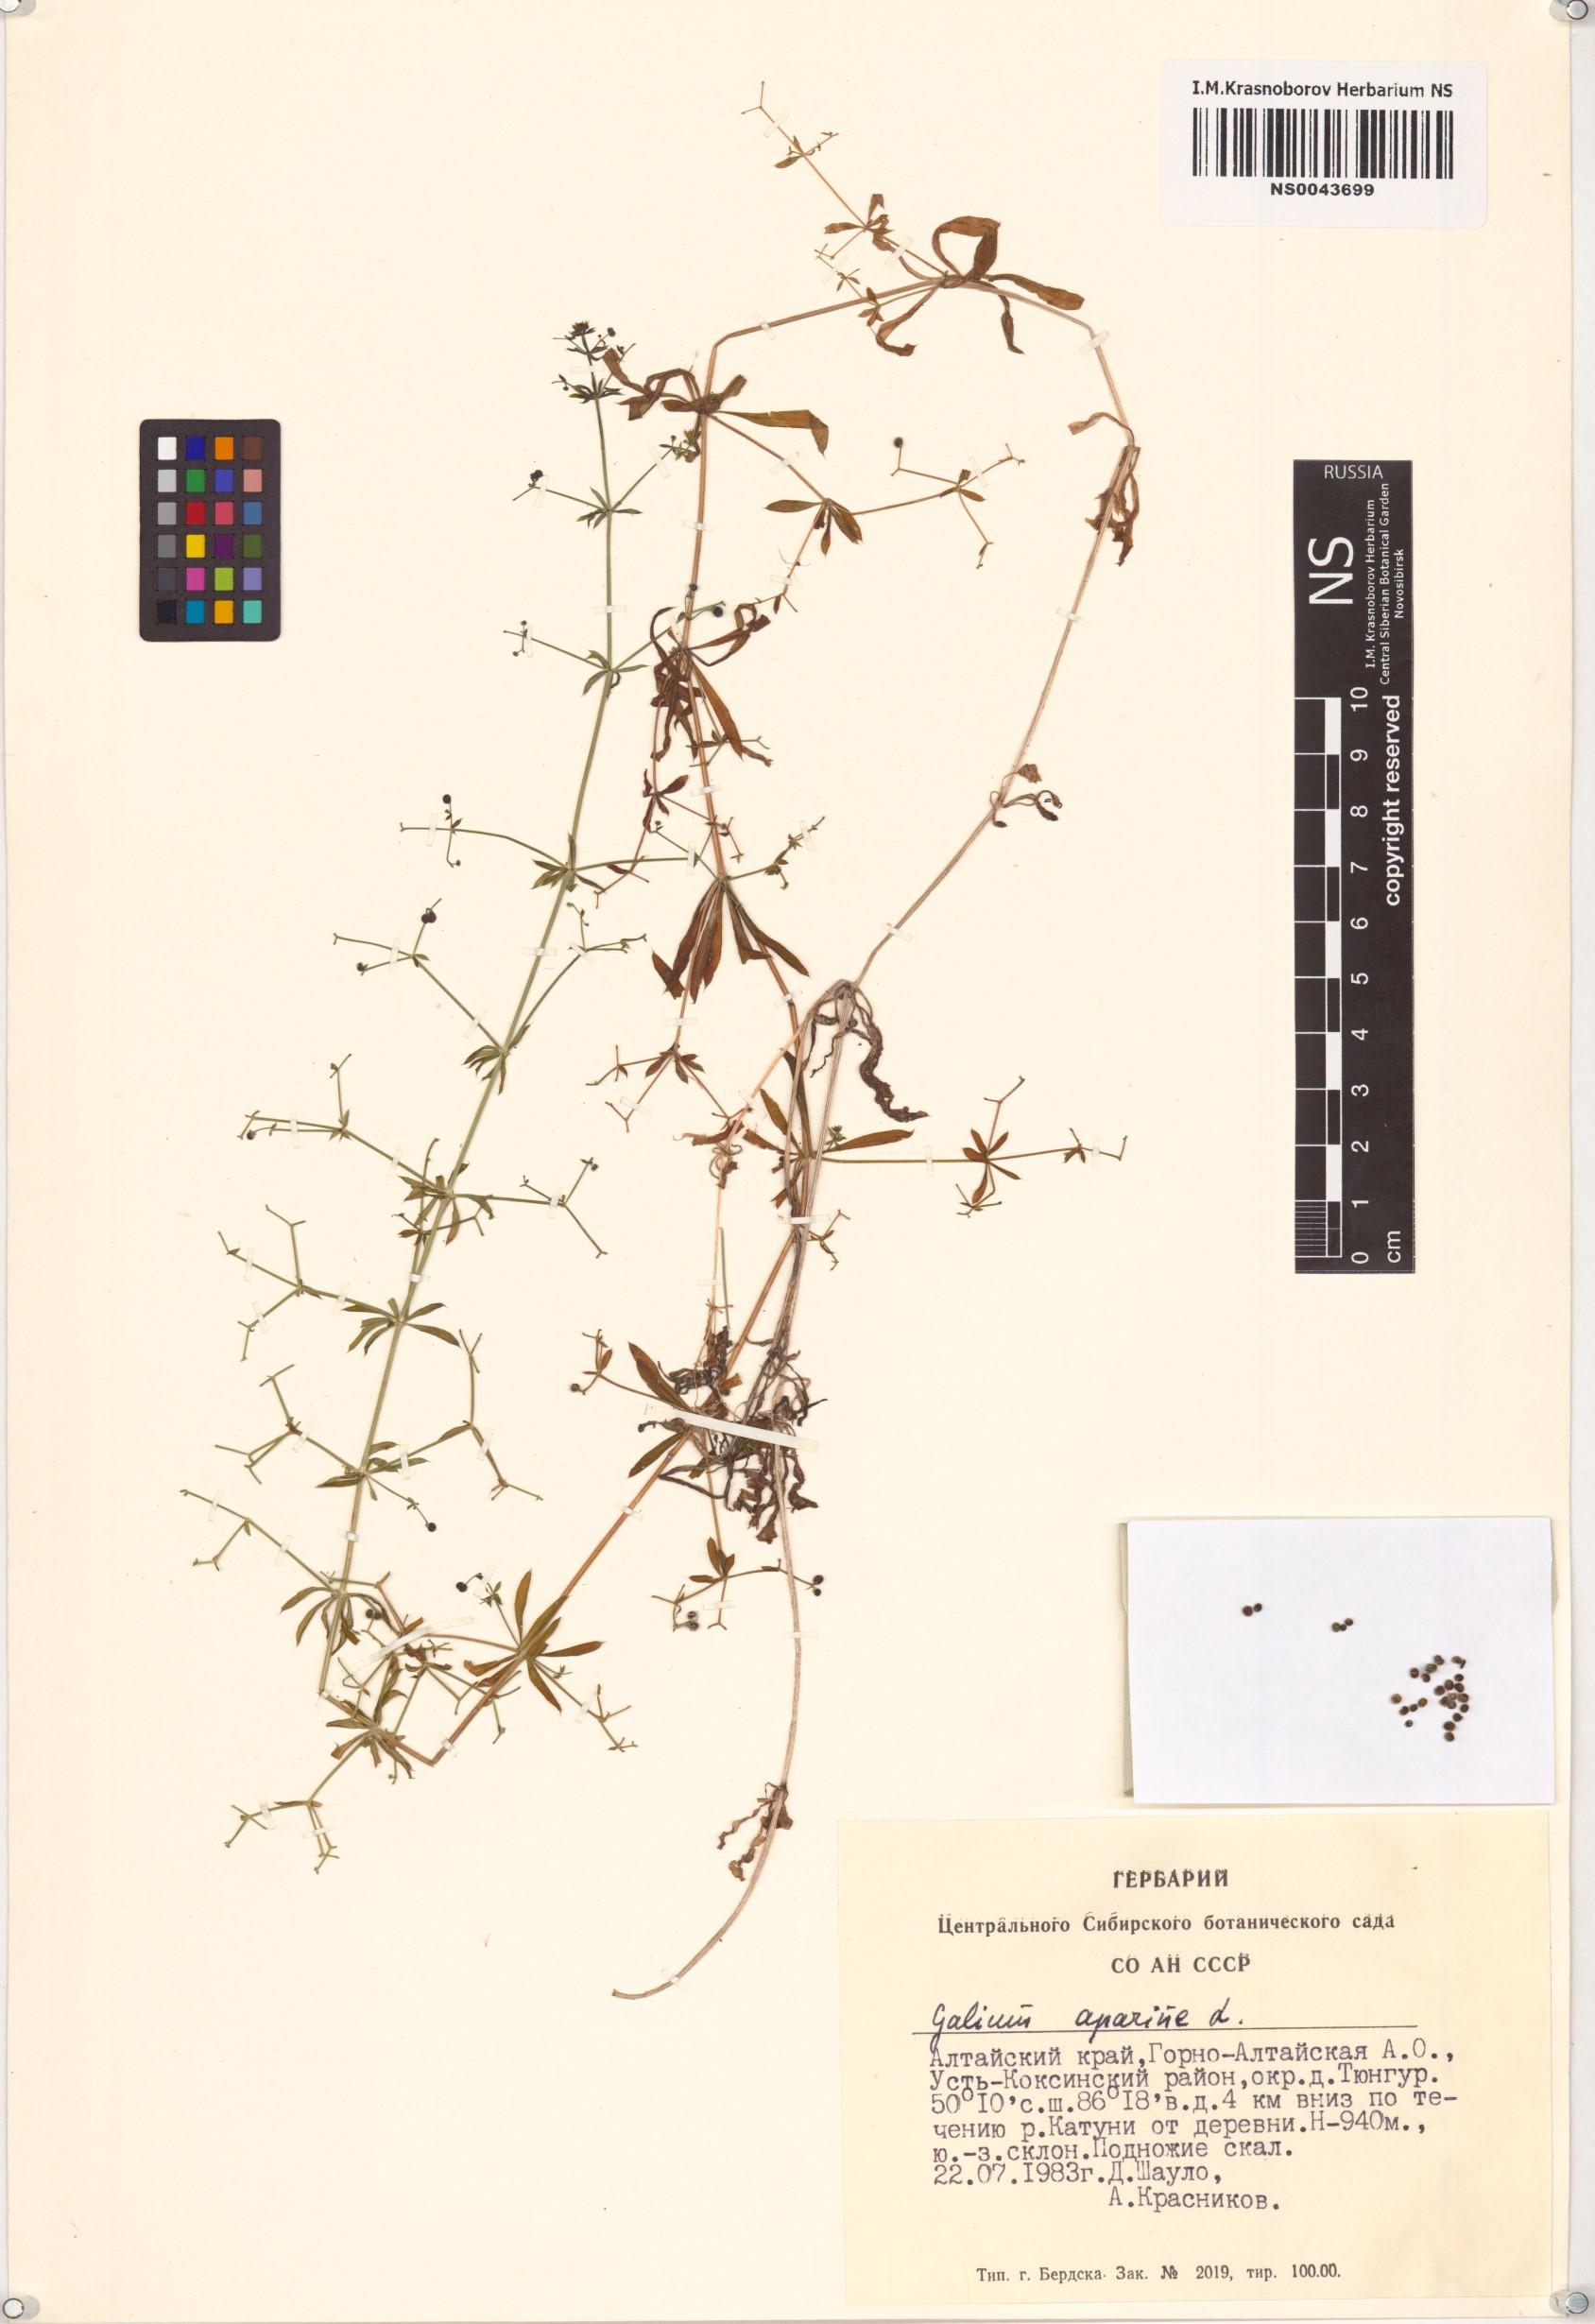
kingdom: Plantae
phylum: Tracheophyta
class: Magnoliopsida
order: Gentianales
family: Rubiaceae
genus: Galium
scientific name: Galium aparine
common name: Cleavers
